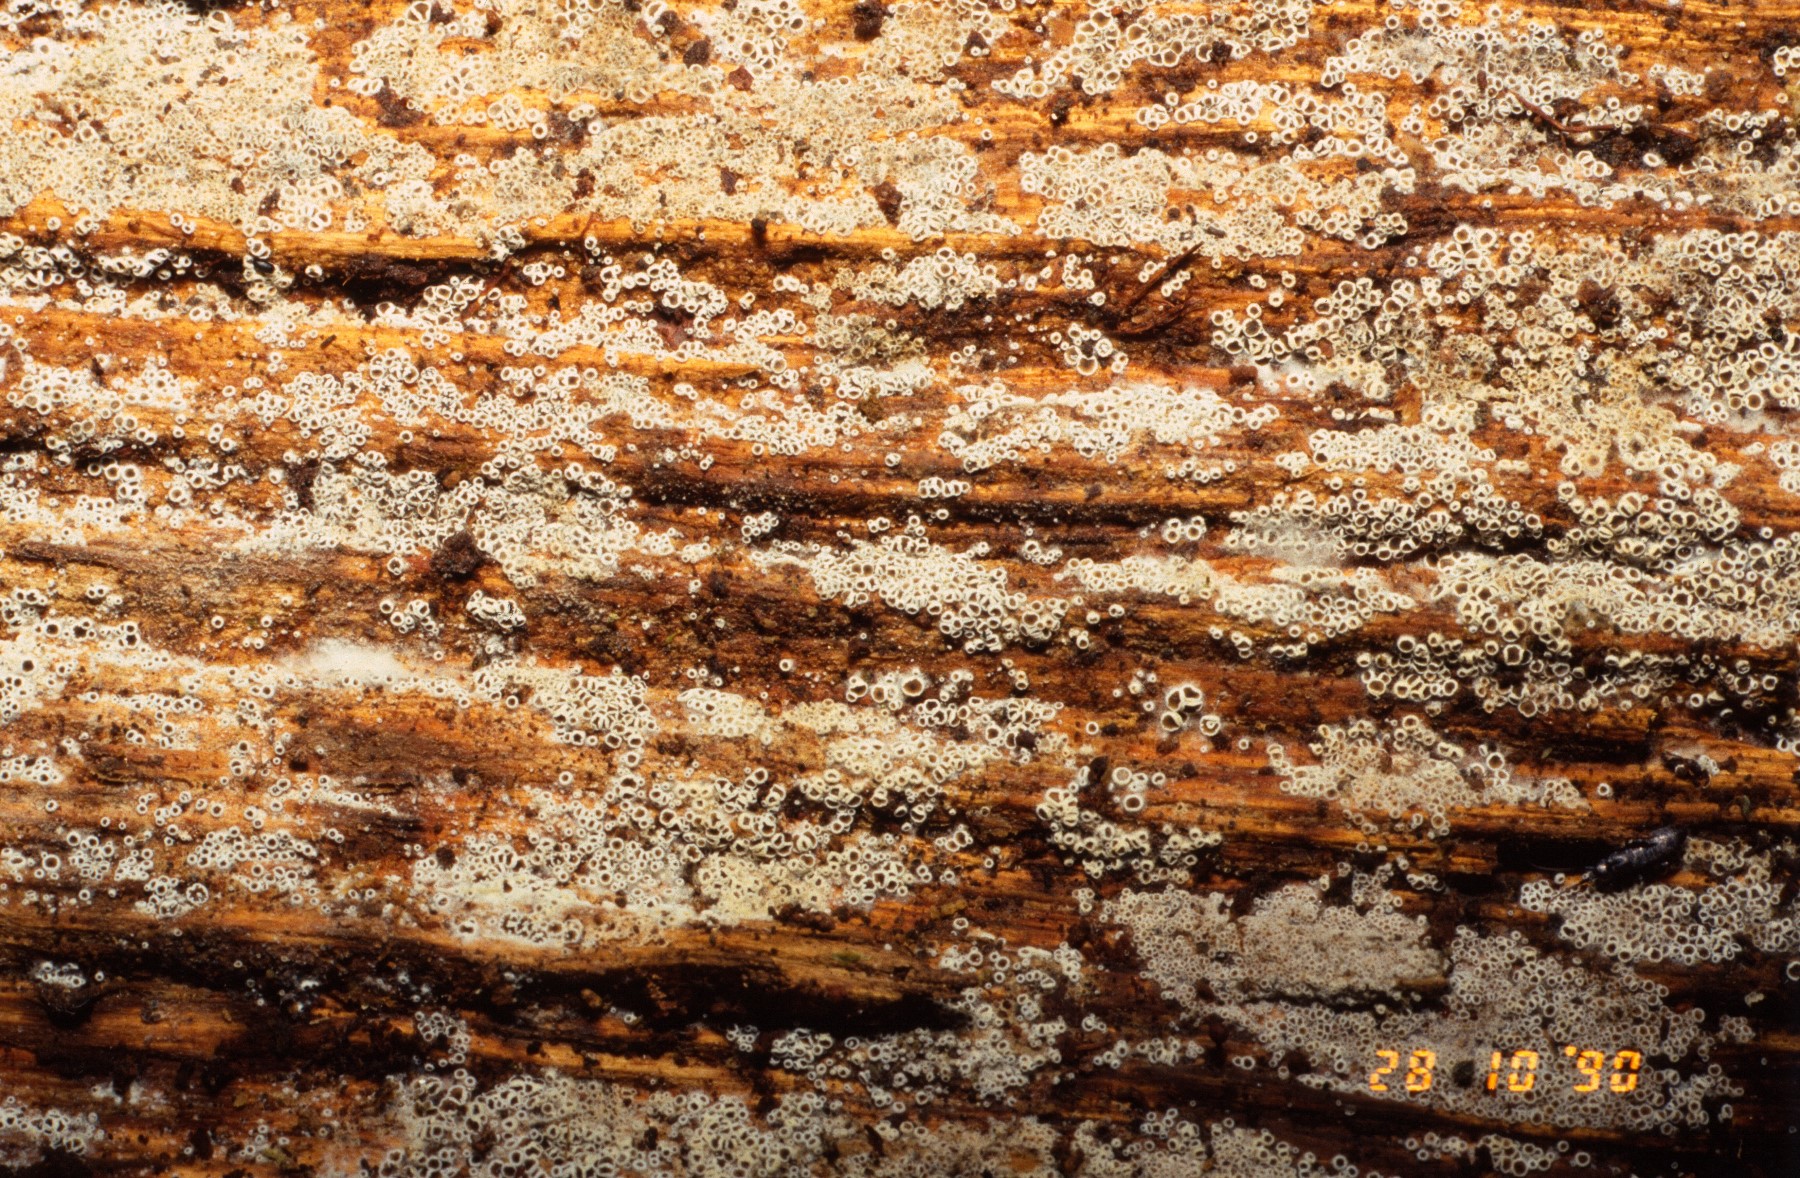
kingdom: Fungi
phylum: Ascomycota
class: Leotiomycetes
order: Helotiales
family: Arachnopezizaceae
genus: Eriopezia
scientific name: Eriopezia caesia
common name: ege-spindskive
